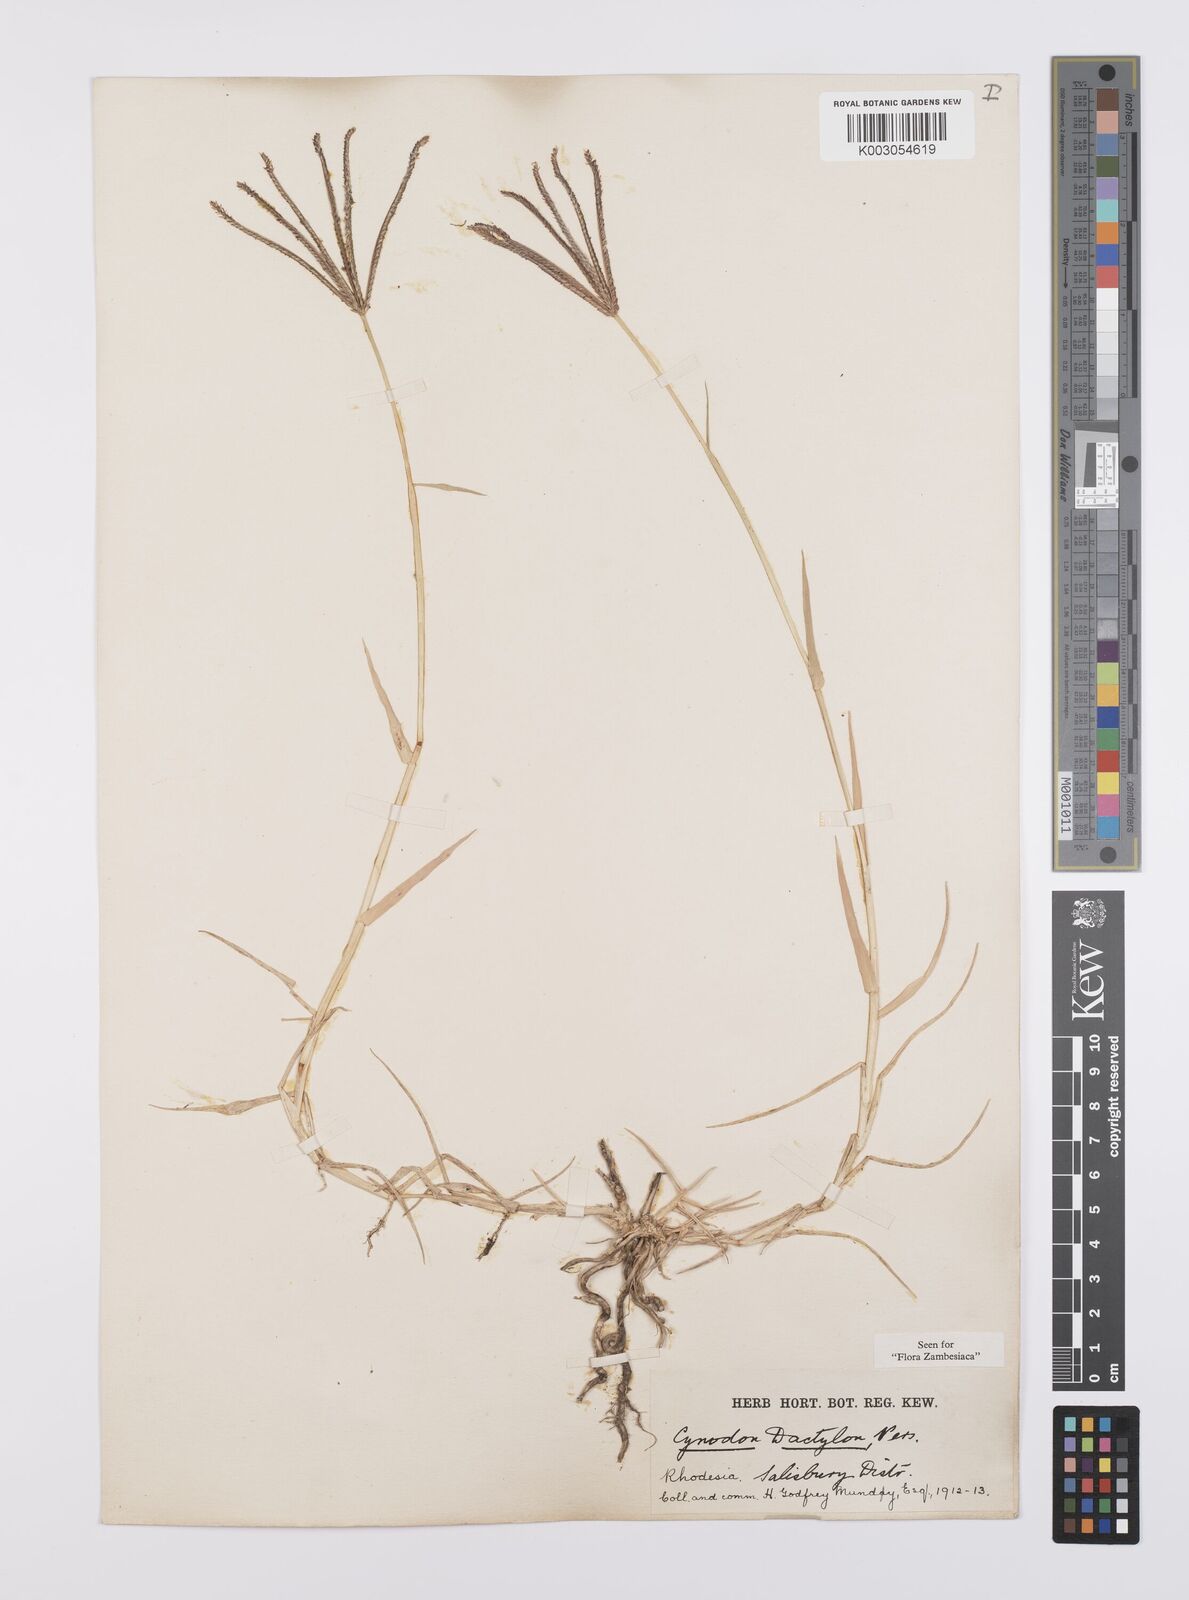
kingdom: Plantae
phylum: Tracheophyta
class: Liliopsida
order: Poales
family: Poaceae
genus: Cynodon
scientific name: Cynodon dactylon
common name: Bermuda grass
